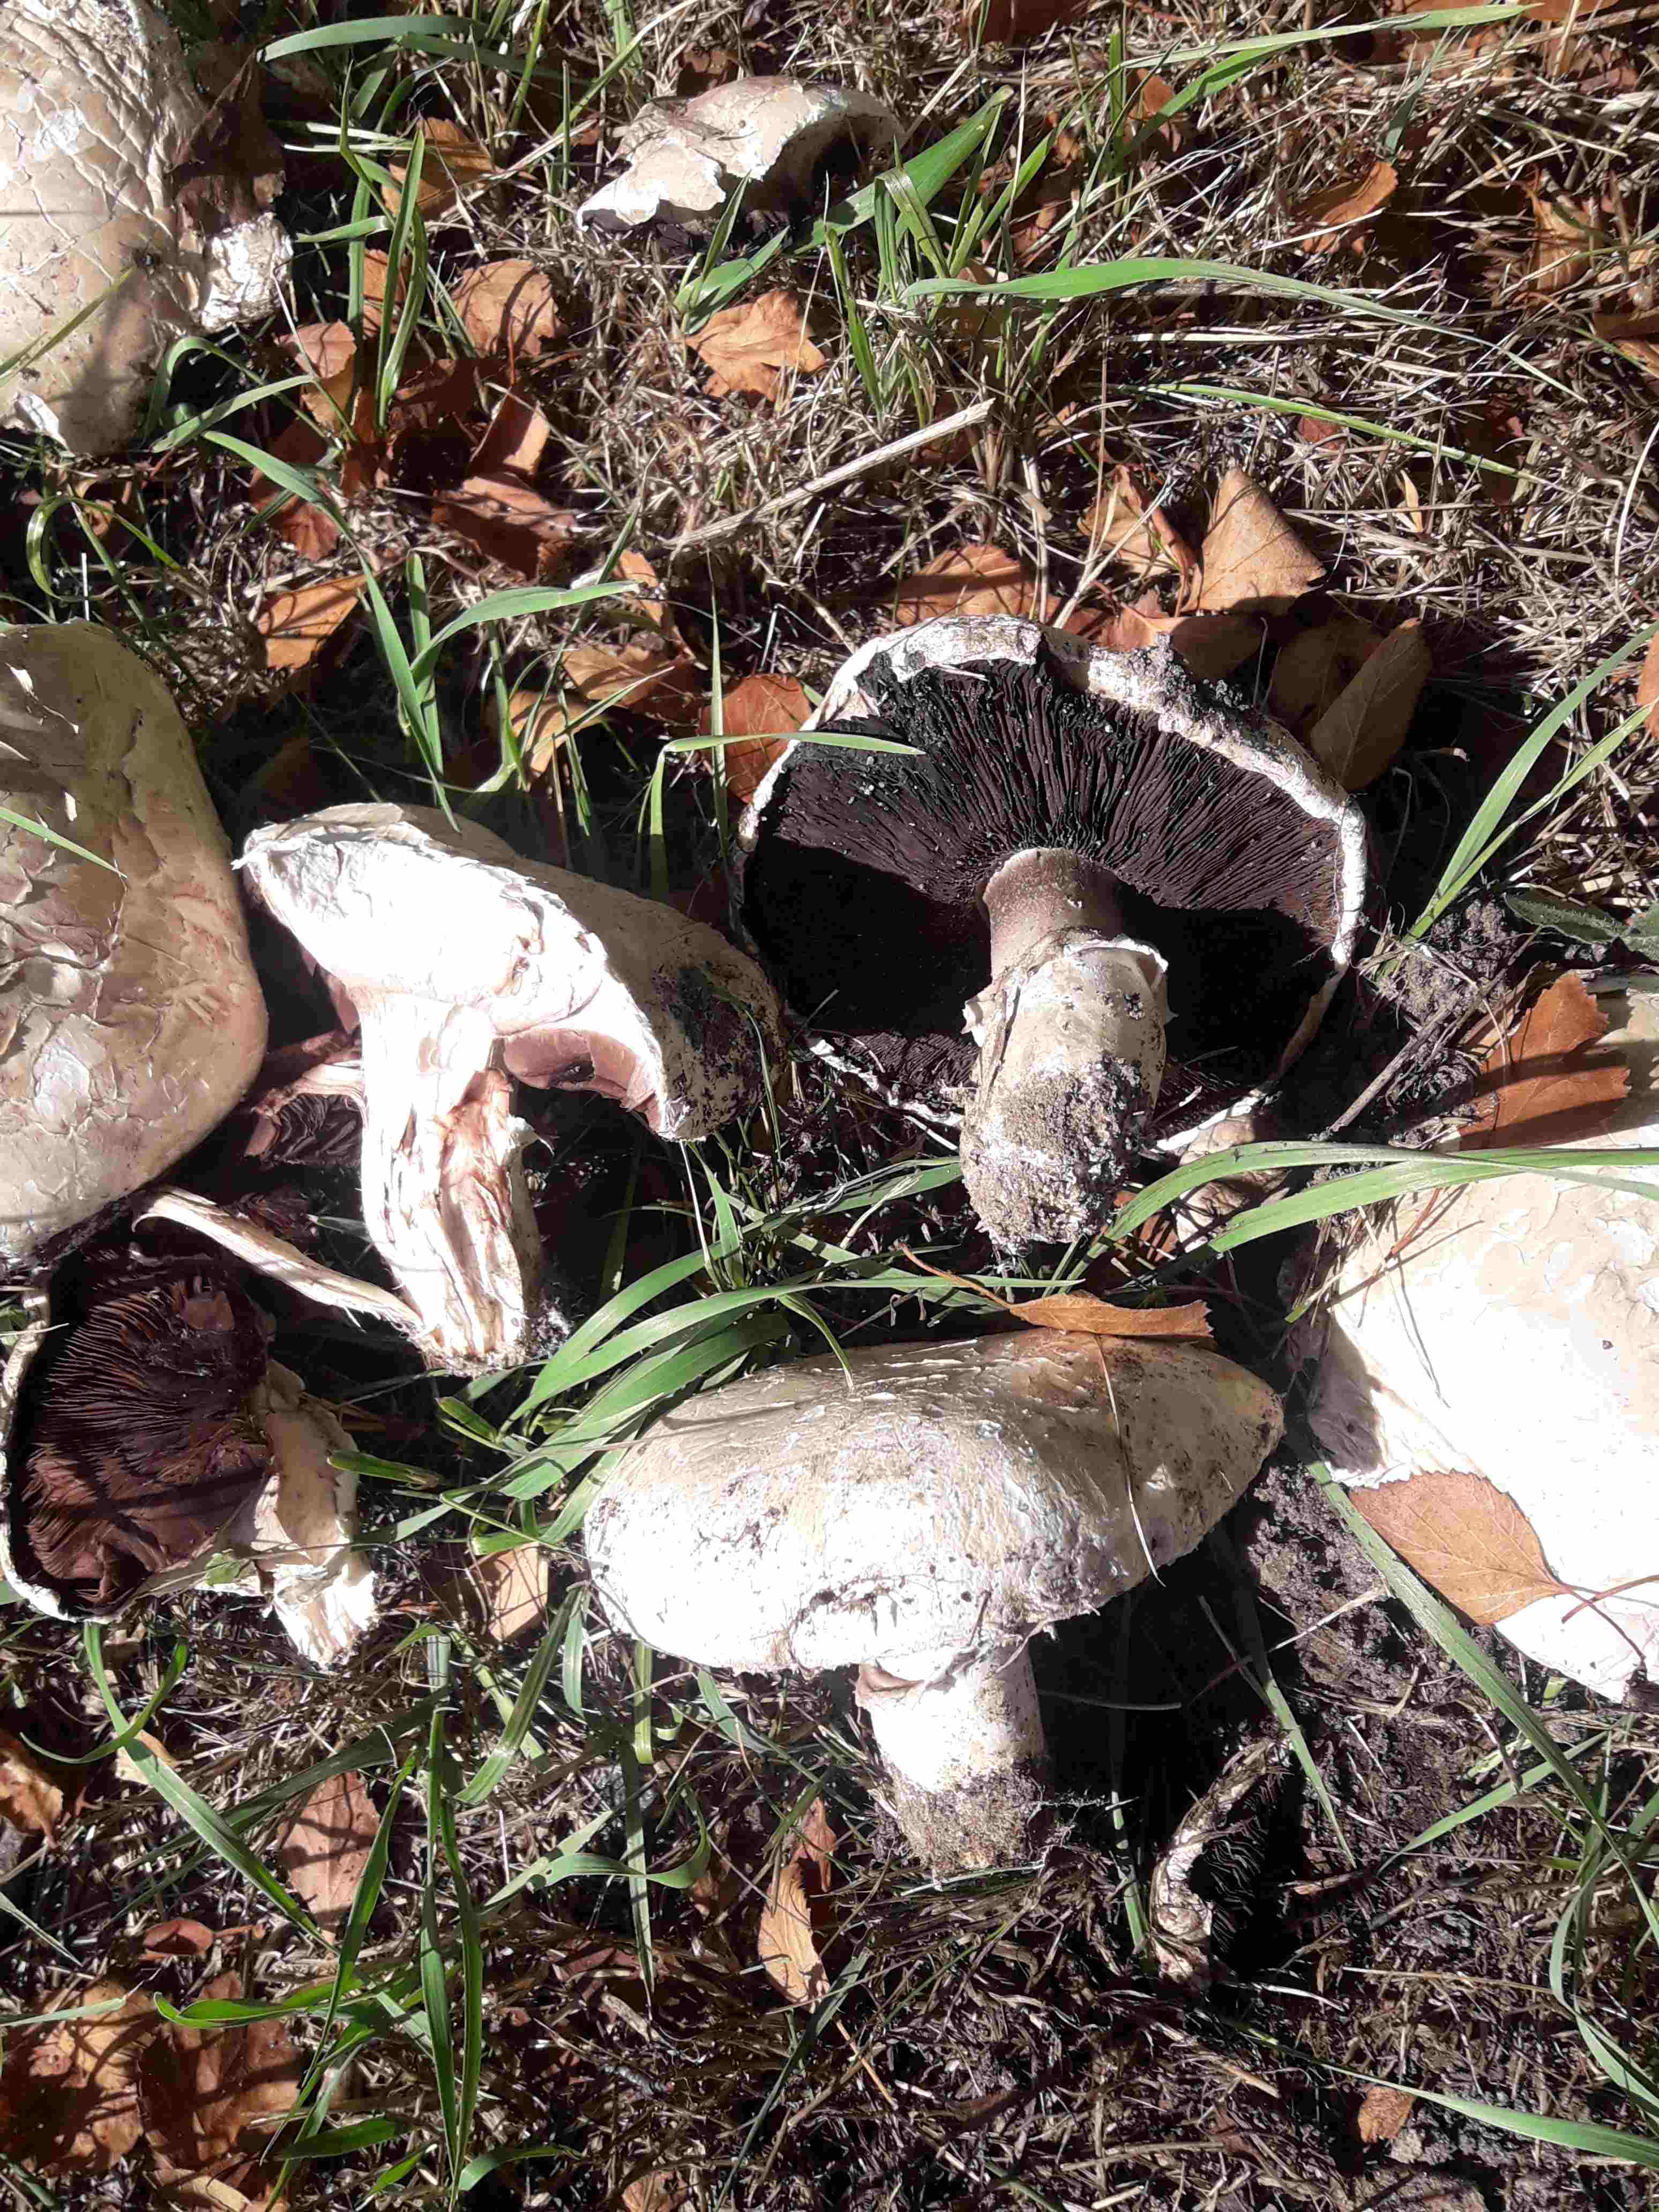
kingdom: Fungi
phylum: Basidiomycota
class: Agaricomycetes
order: Agaricales
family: Agaricaceae
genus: Agaricus
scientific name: Agaricus bernardii
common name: strandengs-champignon
